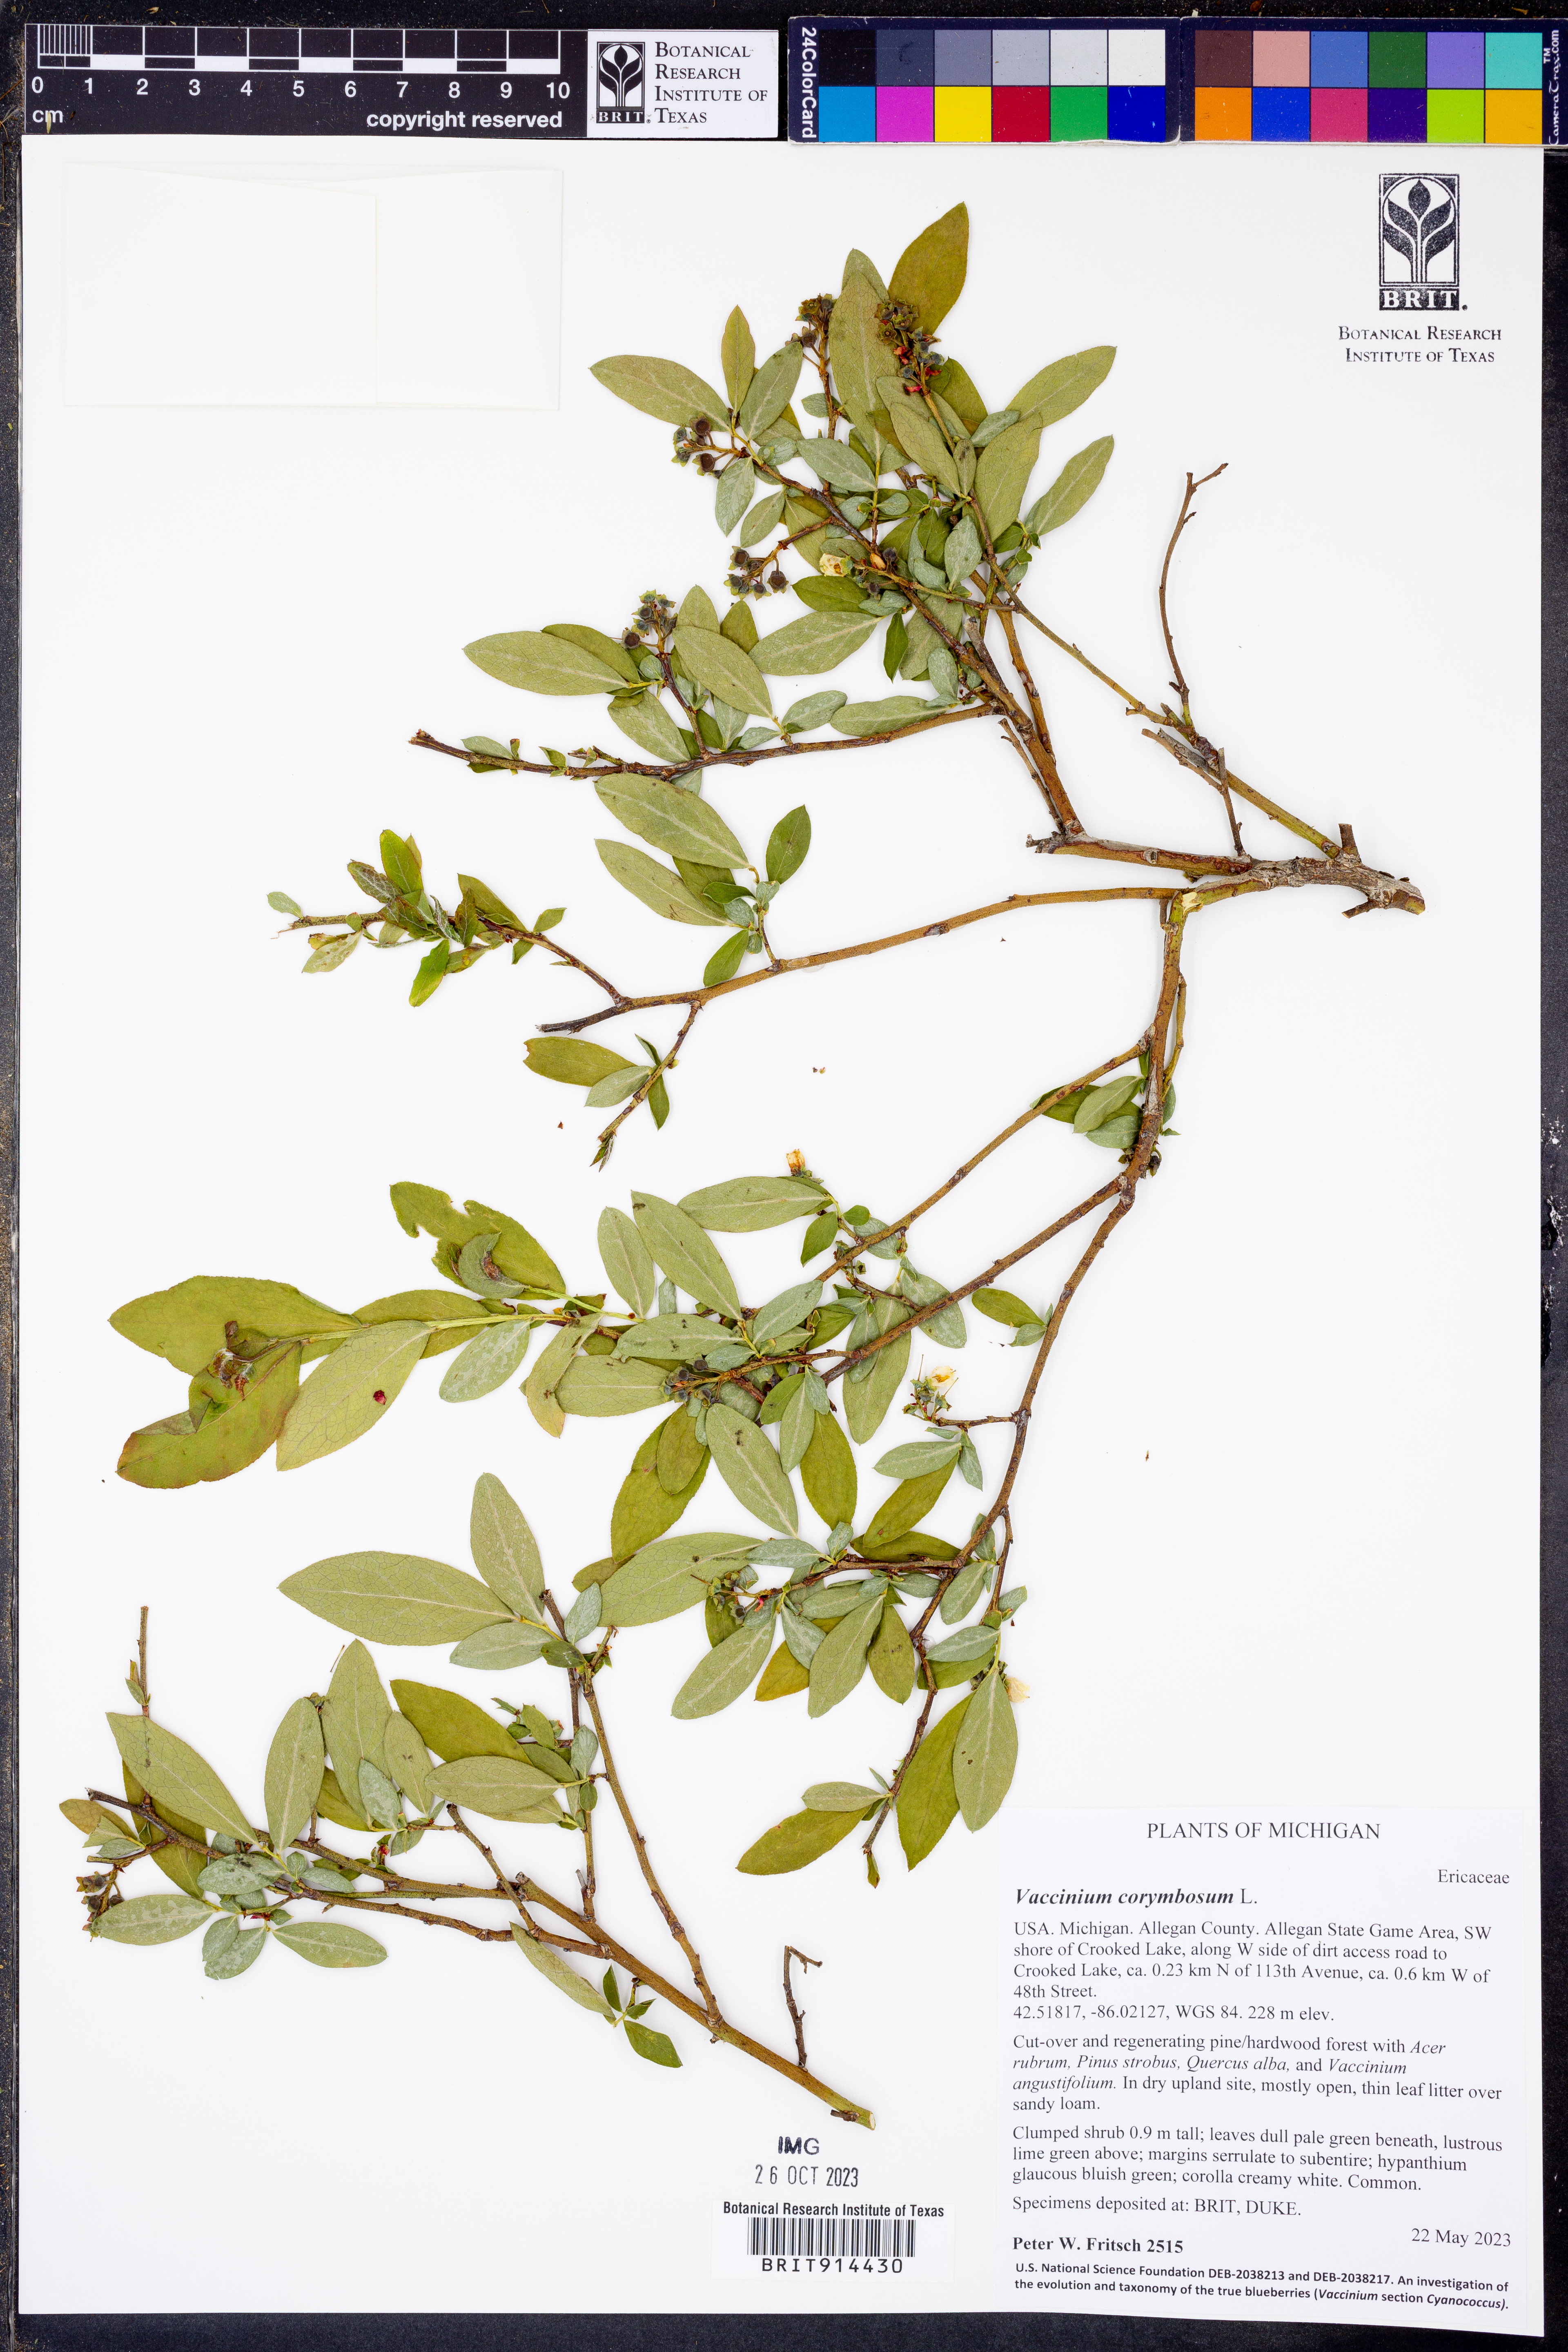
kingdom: Plantae
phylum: Tracheophyta
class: Magnoliopsida
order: Ericales
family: Ericaceae
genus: Vaccinium
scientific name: Vaccinium corymbosum
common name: Blueberry
